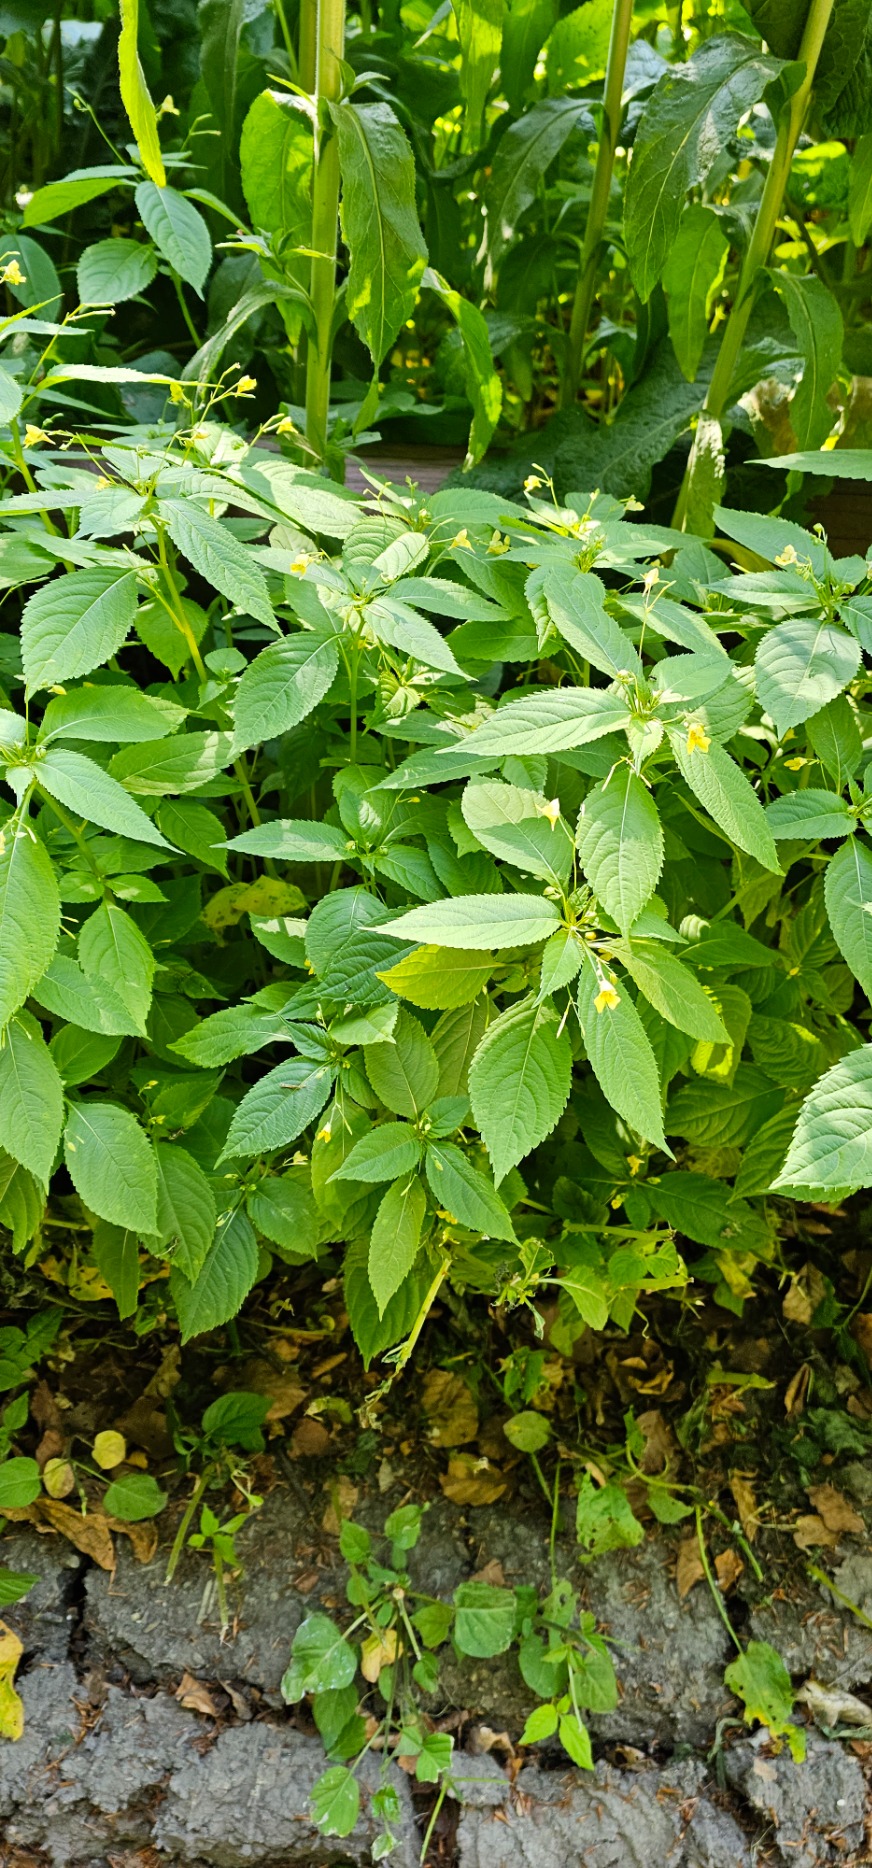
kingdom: Plantae
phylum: Tracheophyta
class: Magnoliopsida
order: Ericales
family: Balsaminaceae
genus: Impatiens
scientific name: Impatiens parviflora
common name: Småblomstret balsamin
